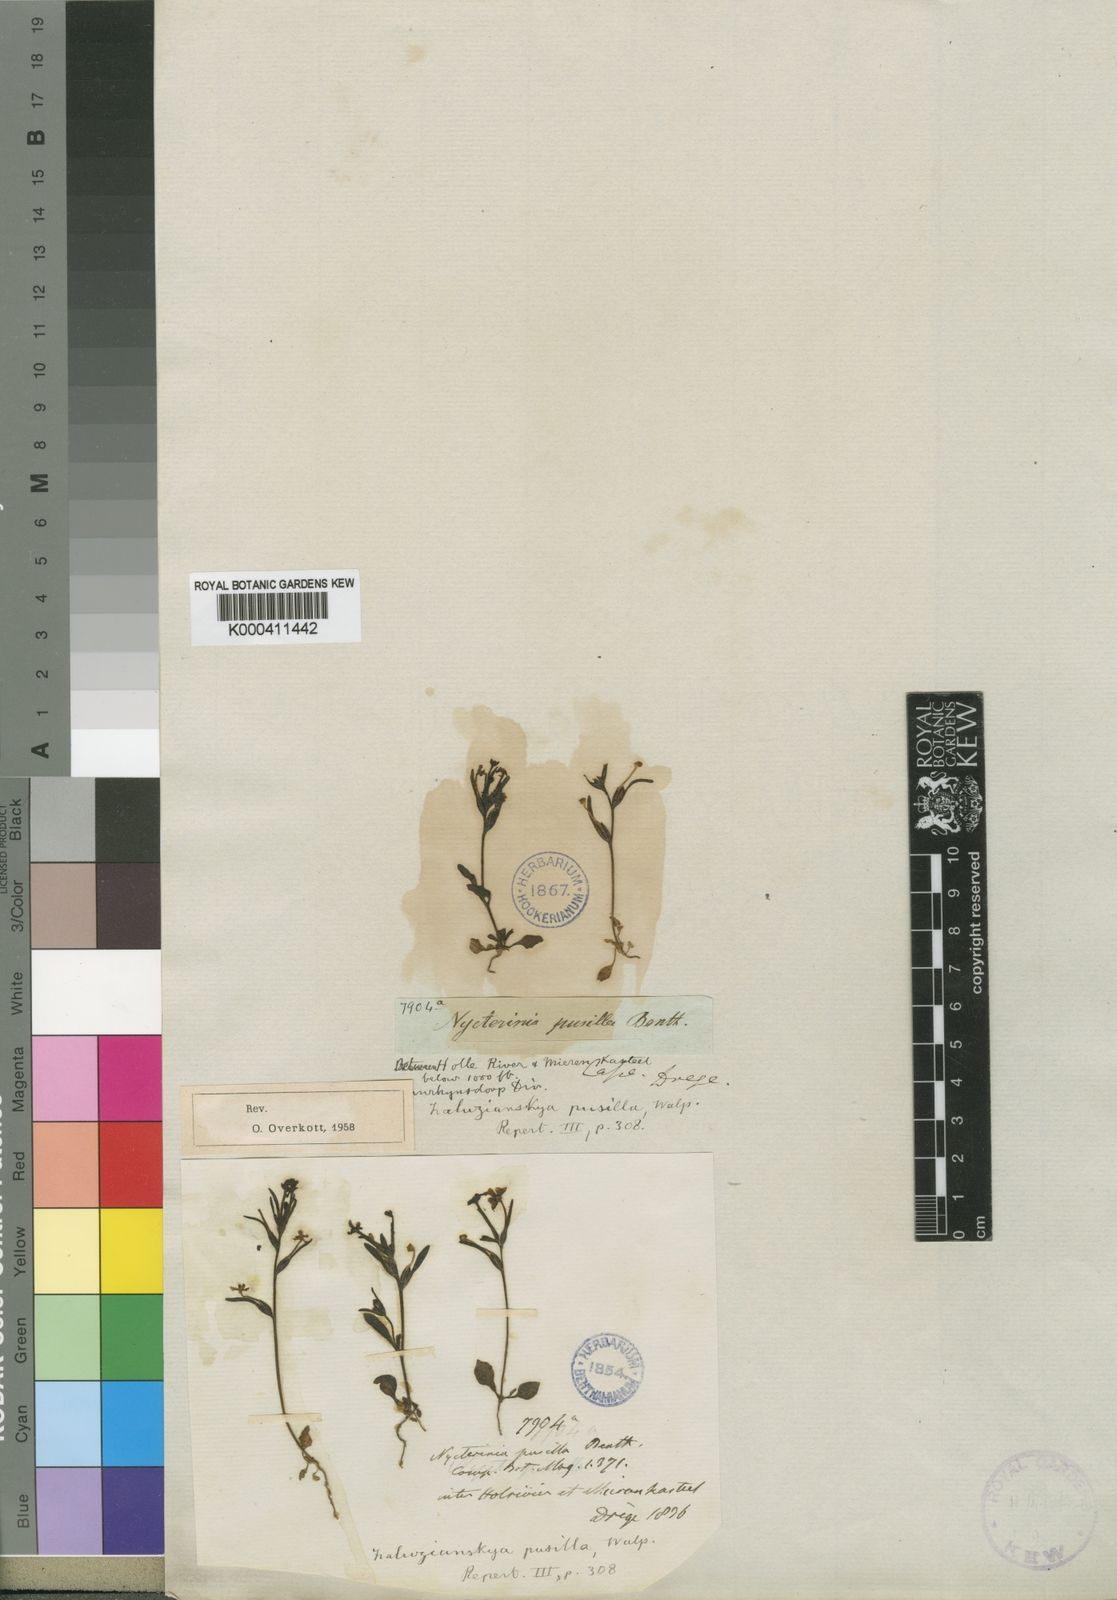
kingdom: Plantae
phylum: Tracheophyta
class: Magnoliopsida
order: Lamiales
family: Scrophulariaceae
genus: Zaluzianskya
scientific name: Zaluzianskya pusilla
